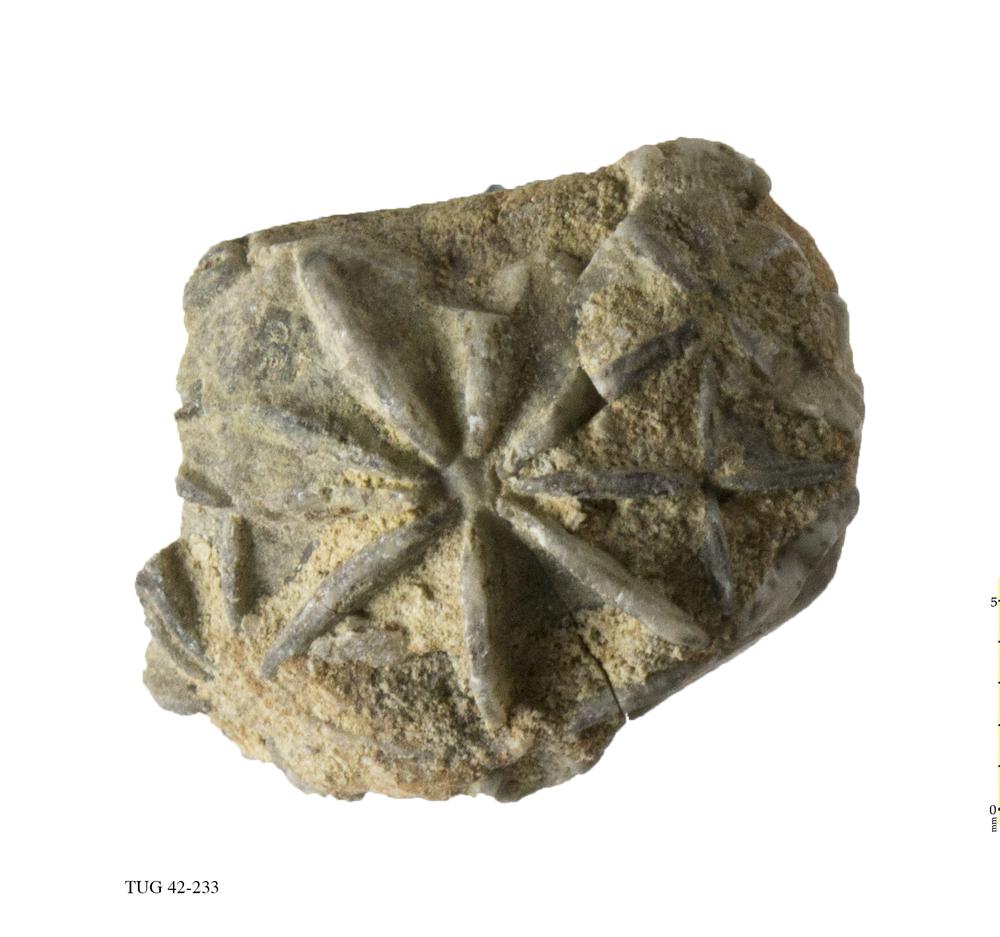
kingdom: Animalia
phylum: Echinodermata
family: Caryocystitidae
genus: Heliocrinites
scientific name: Heliocrinites
